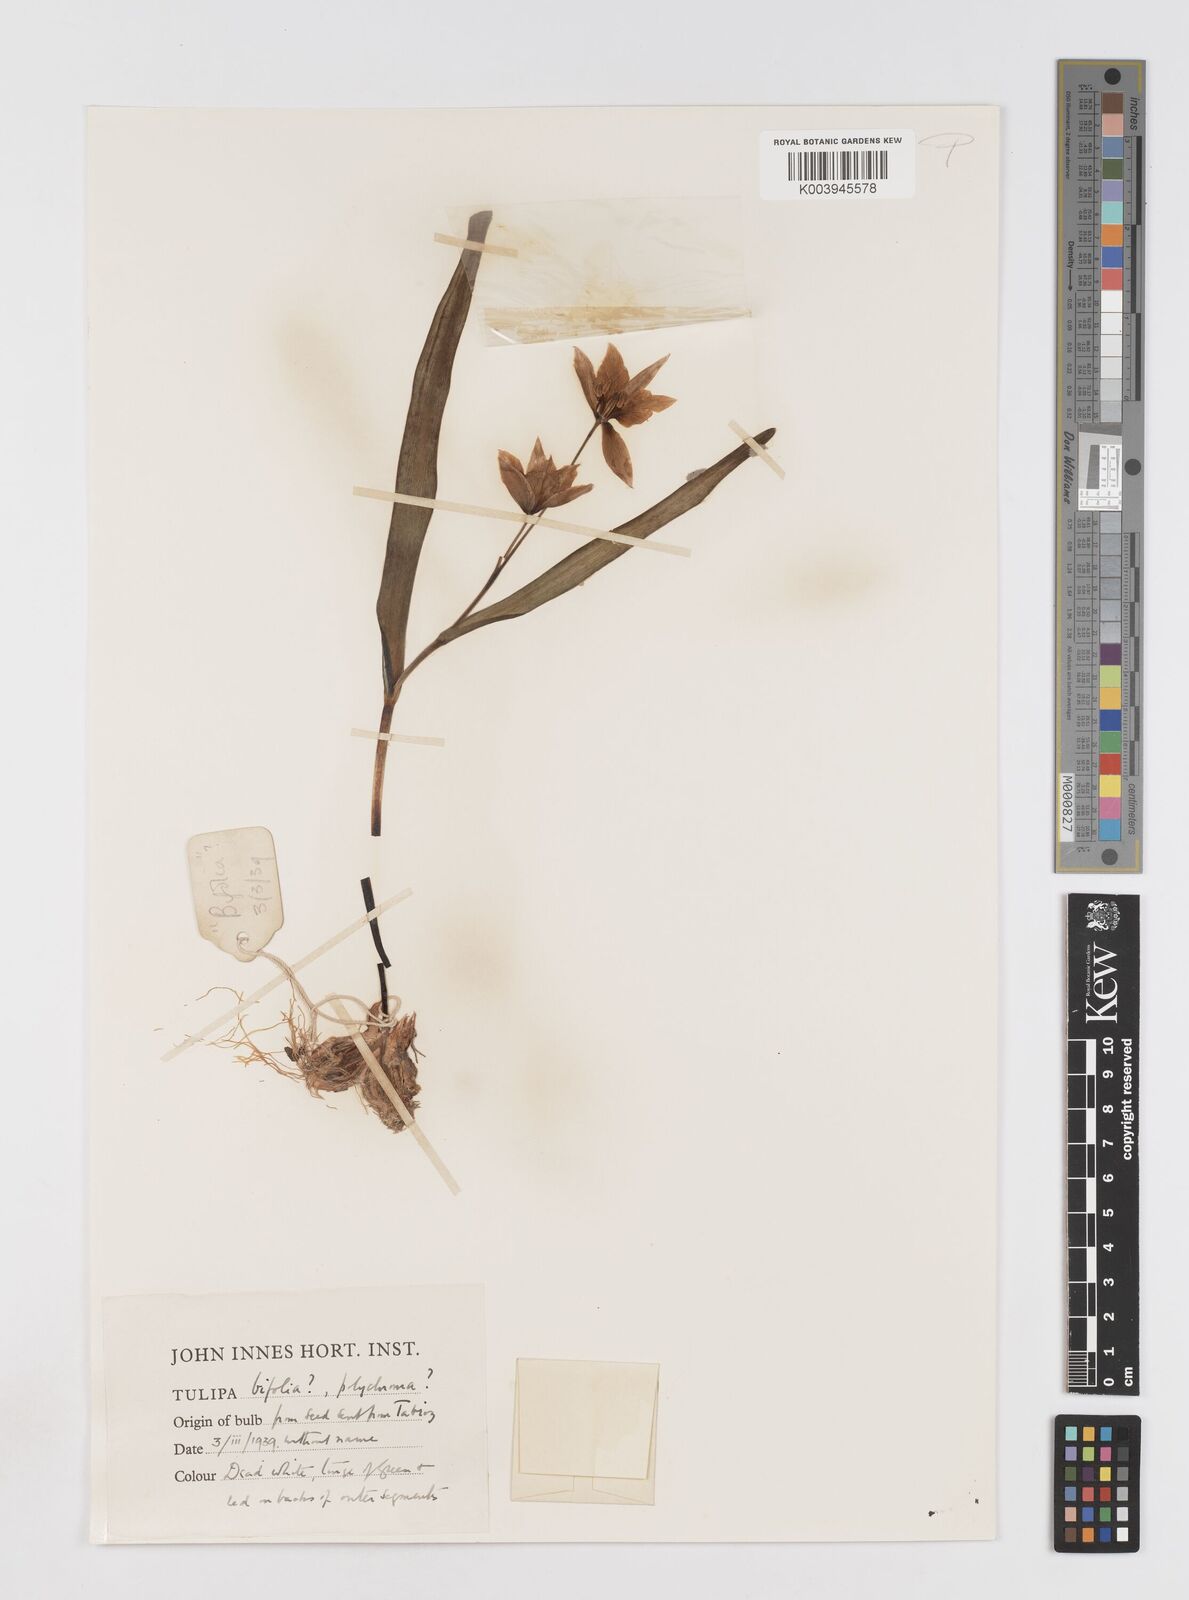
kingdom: Plantae
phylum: Tracheophyta
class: Liliopsida
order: Liliales
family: Liliaceae
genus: Tulipa
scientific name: Tulipa biflora
